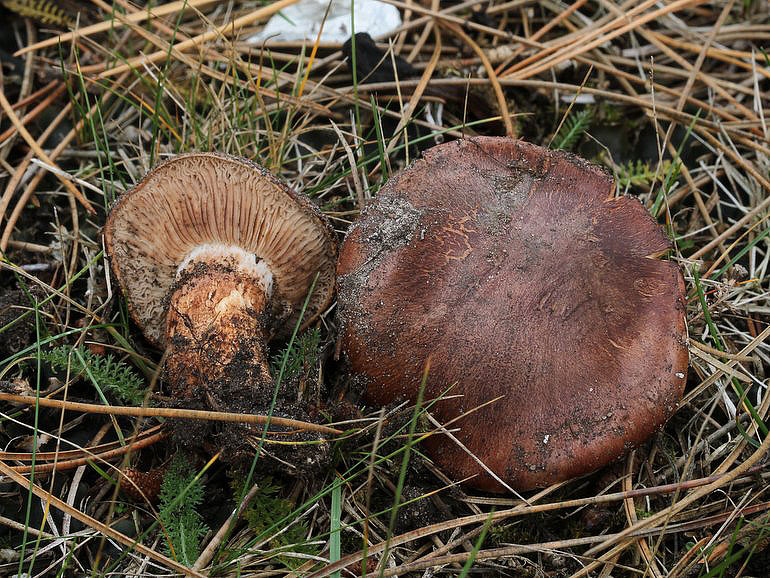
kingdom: Fungi
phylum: Basidiomycota
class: Agaricomycetes
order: Agaricales
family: Tricholomataceae
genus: Tricholoma
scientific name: Tricholoma fracticum
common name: hvidhalset ridderhat
